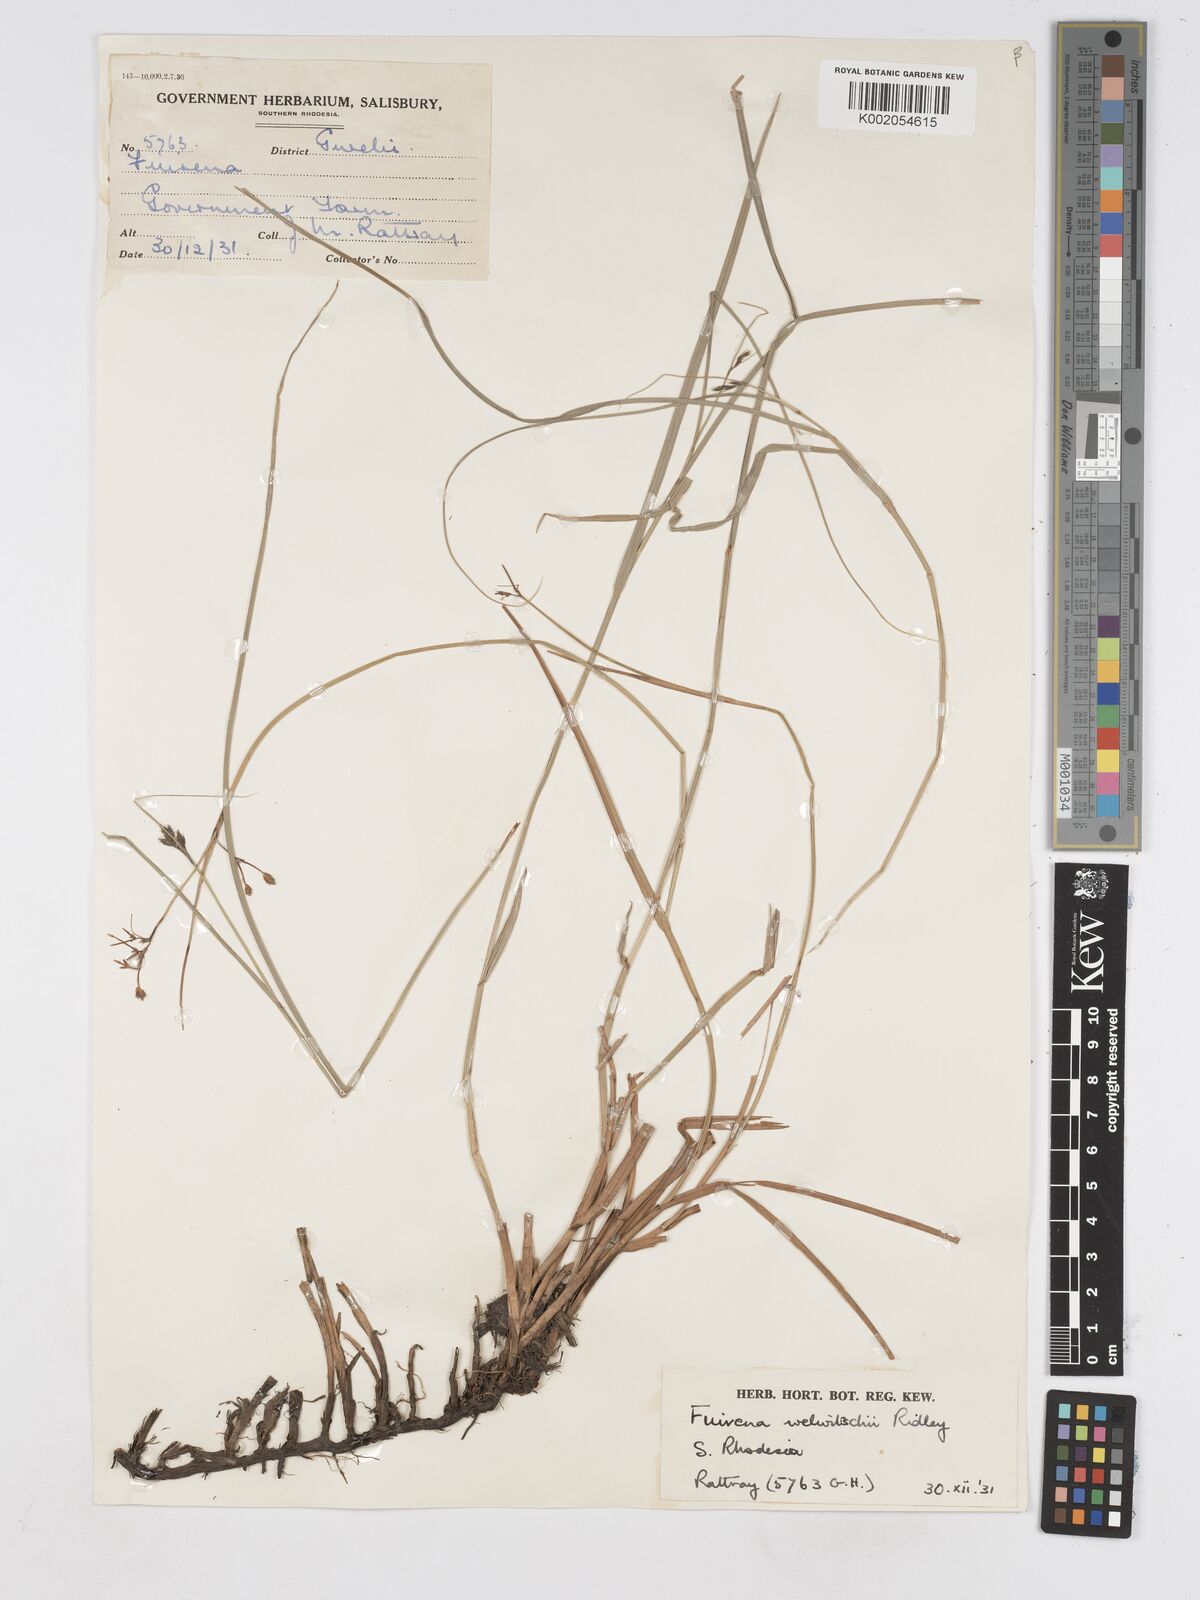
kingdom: Plantae
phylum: Tracheophyta
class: Liliopsida
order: Poales
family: Cyperaceae
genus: Fuirena
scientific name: Fuirena welwitschii
